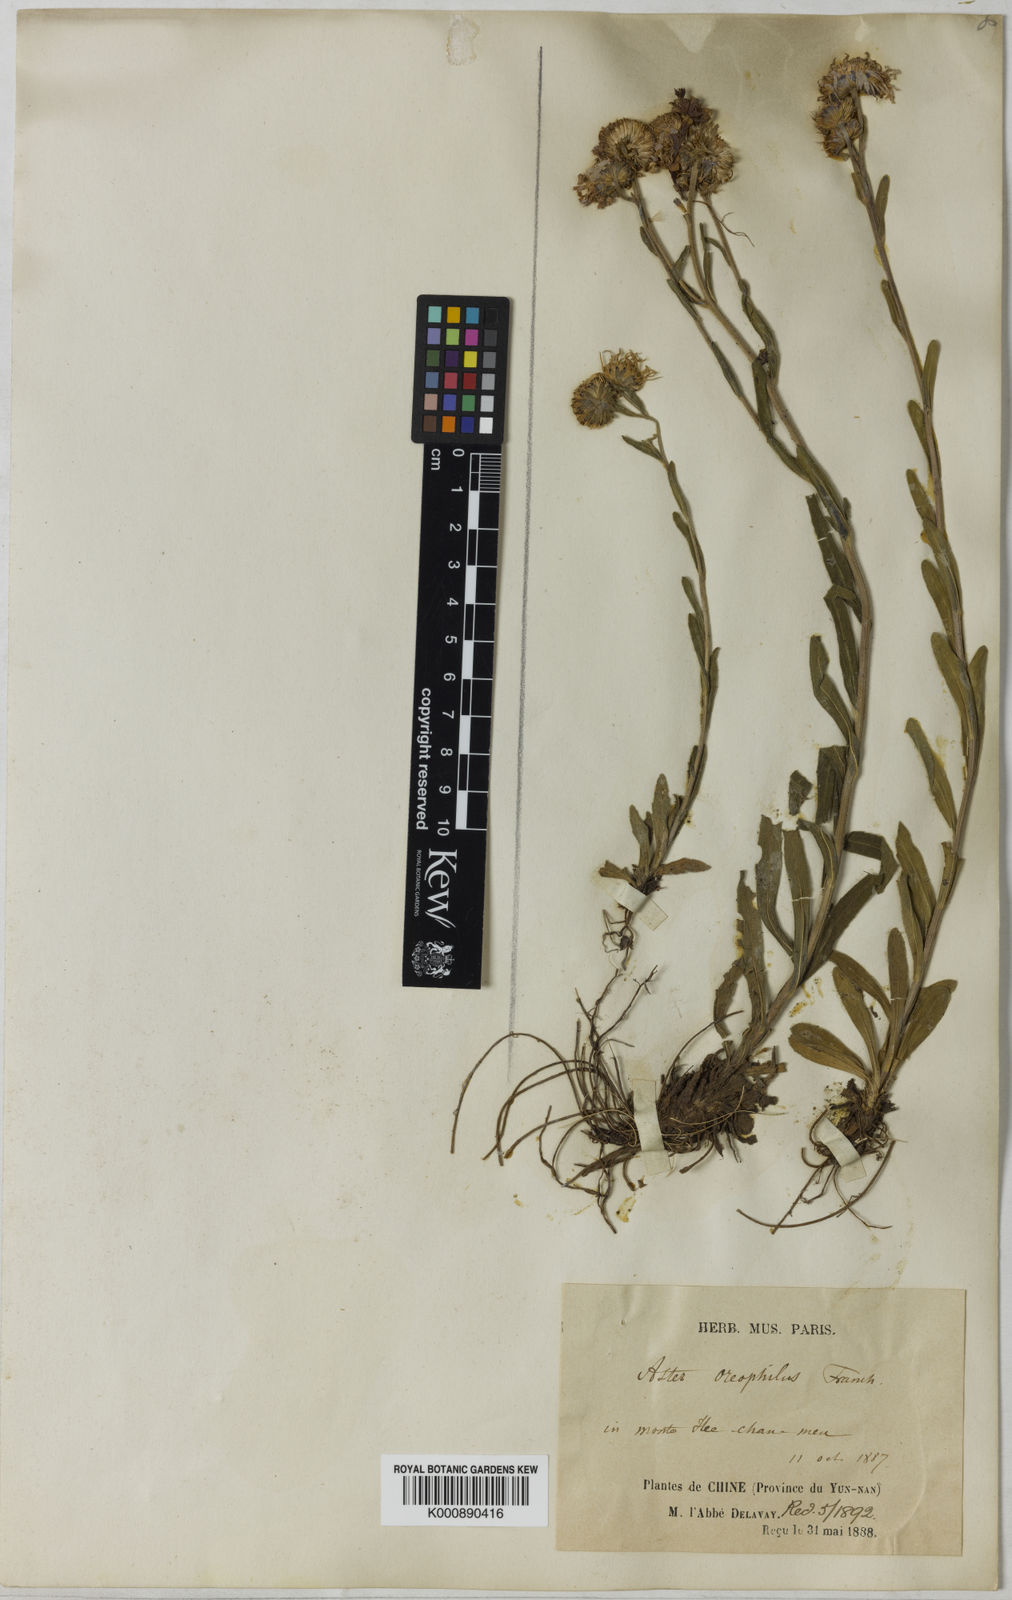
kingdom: Plantae
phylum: Tracheophyta
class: Magnoliopsida
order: Asterales
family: Asteraceae
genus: Aster
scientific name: Aster oreophilus
